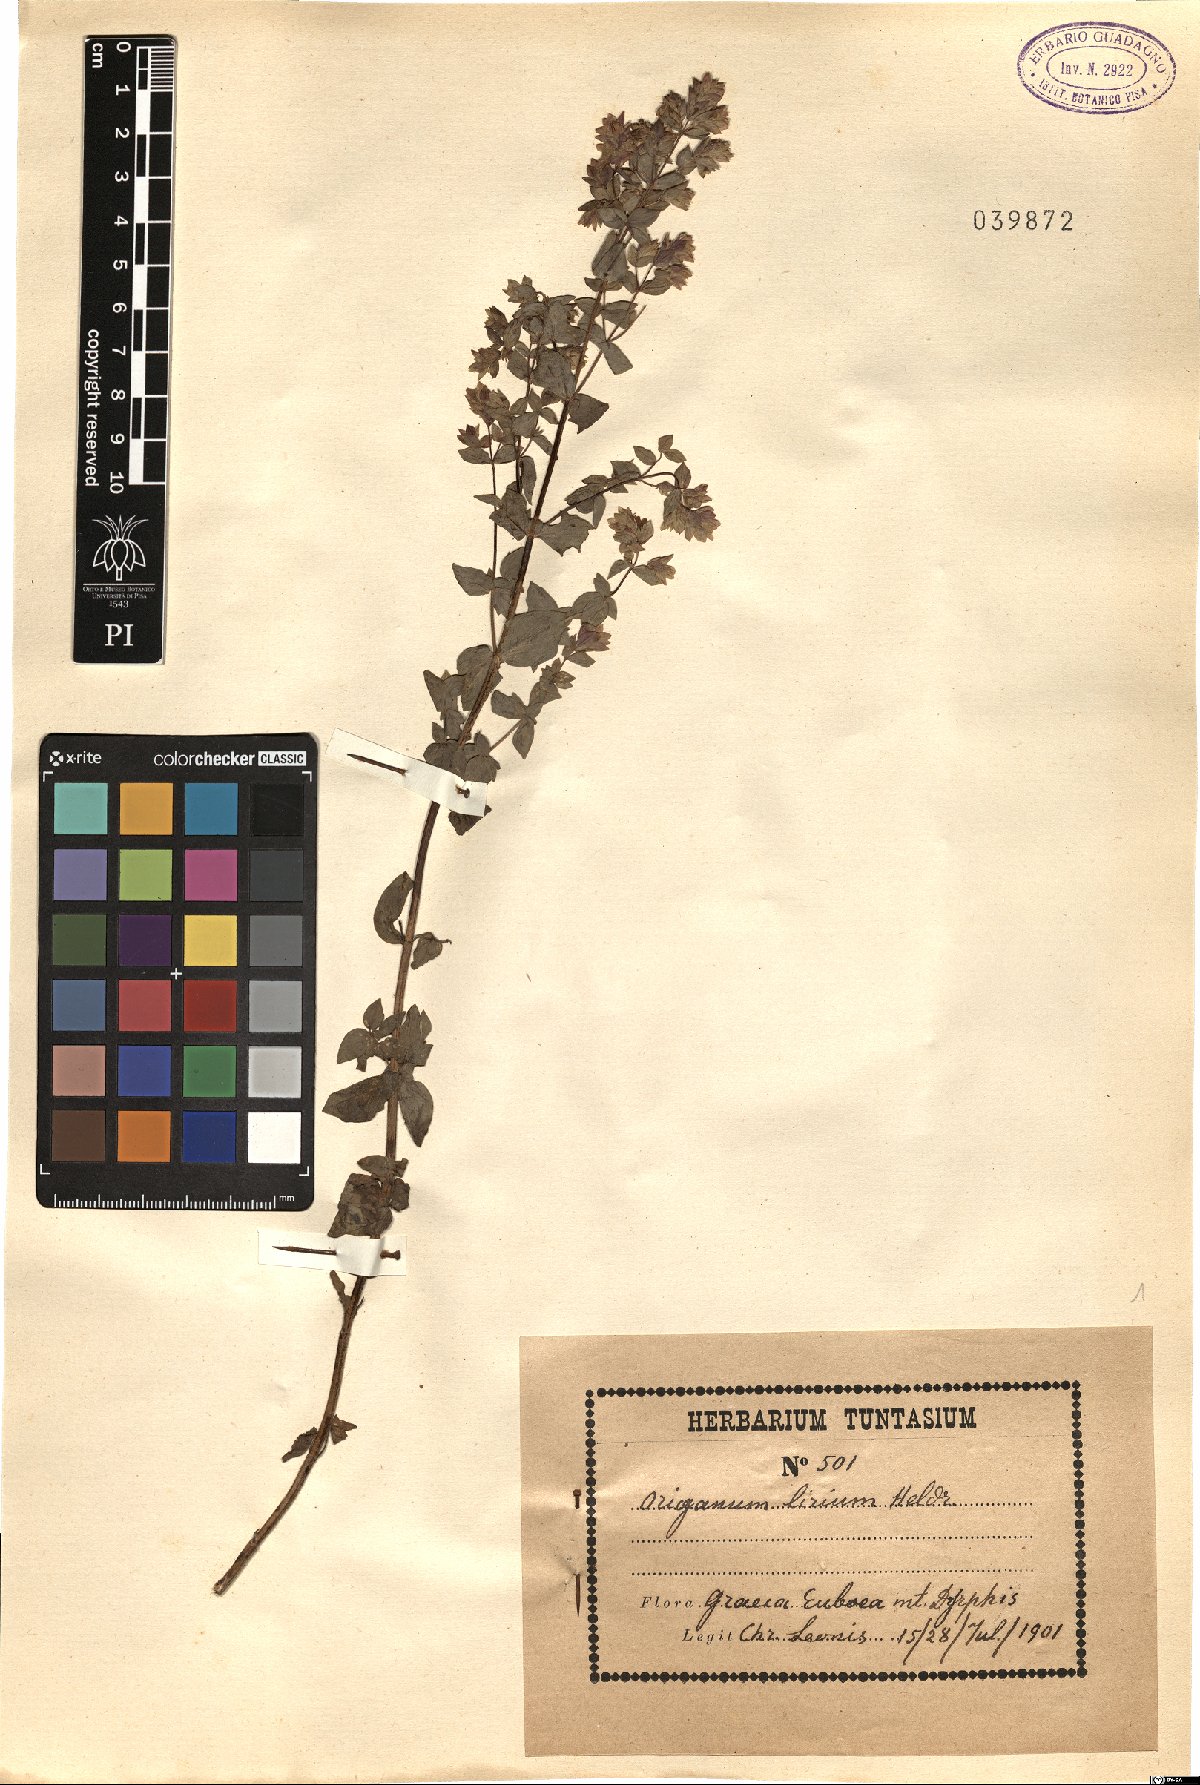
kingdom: Plantae
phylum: Tracheophyta
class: Magnoliopsida
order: Lamiales
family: Lamiaceae
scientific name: Lamiaceae
